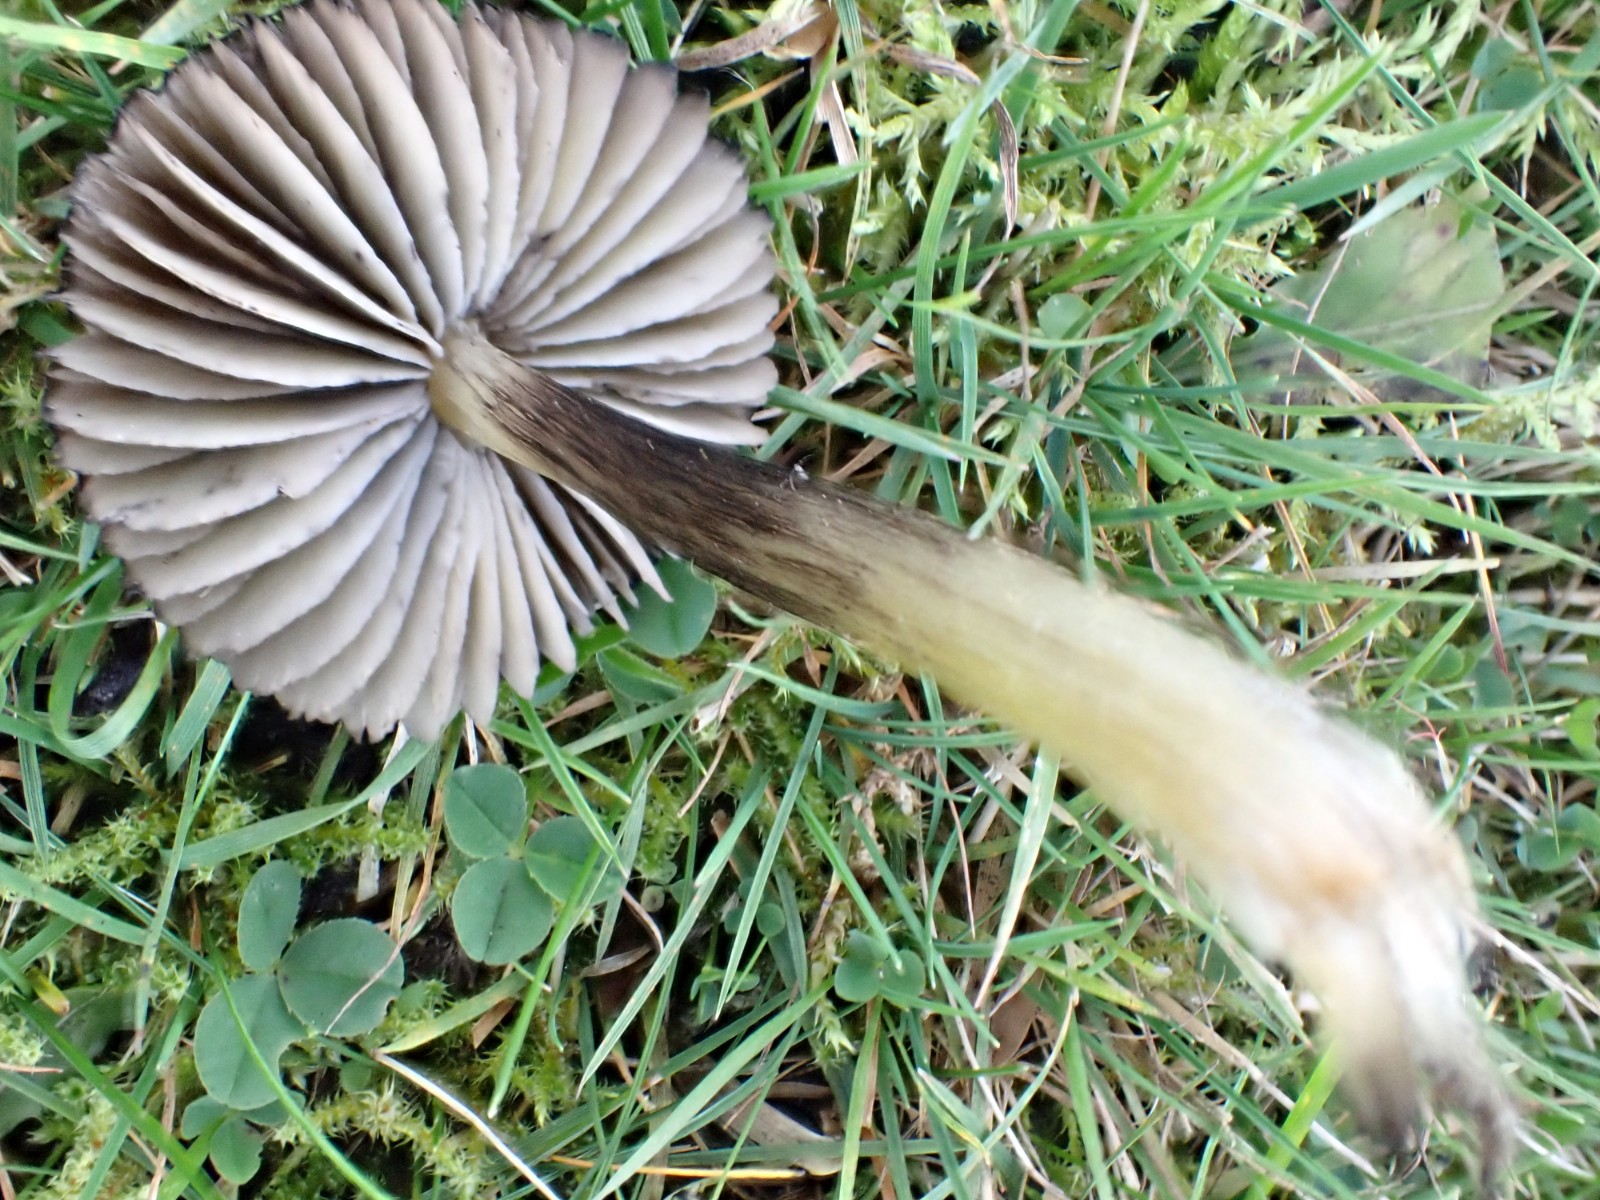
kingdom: Fungi
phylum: Basidiomycota
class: Agaricomycetes
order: Agaricales
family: Hygrophoraceae
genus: Hygrocybe
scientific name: Hygrocybe conica
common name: kegle-vokshat
